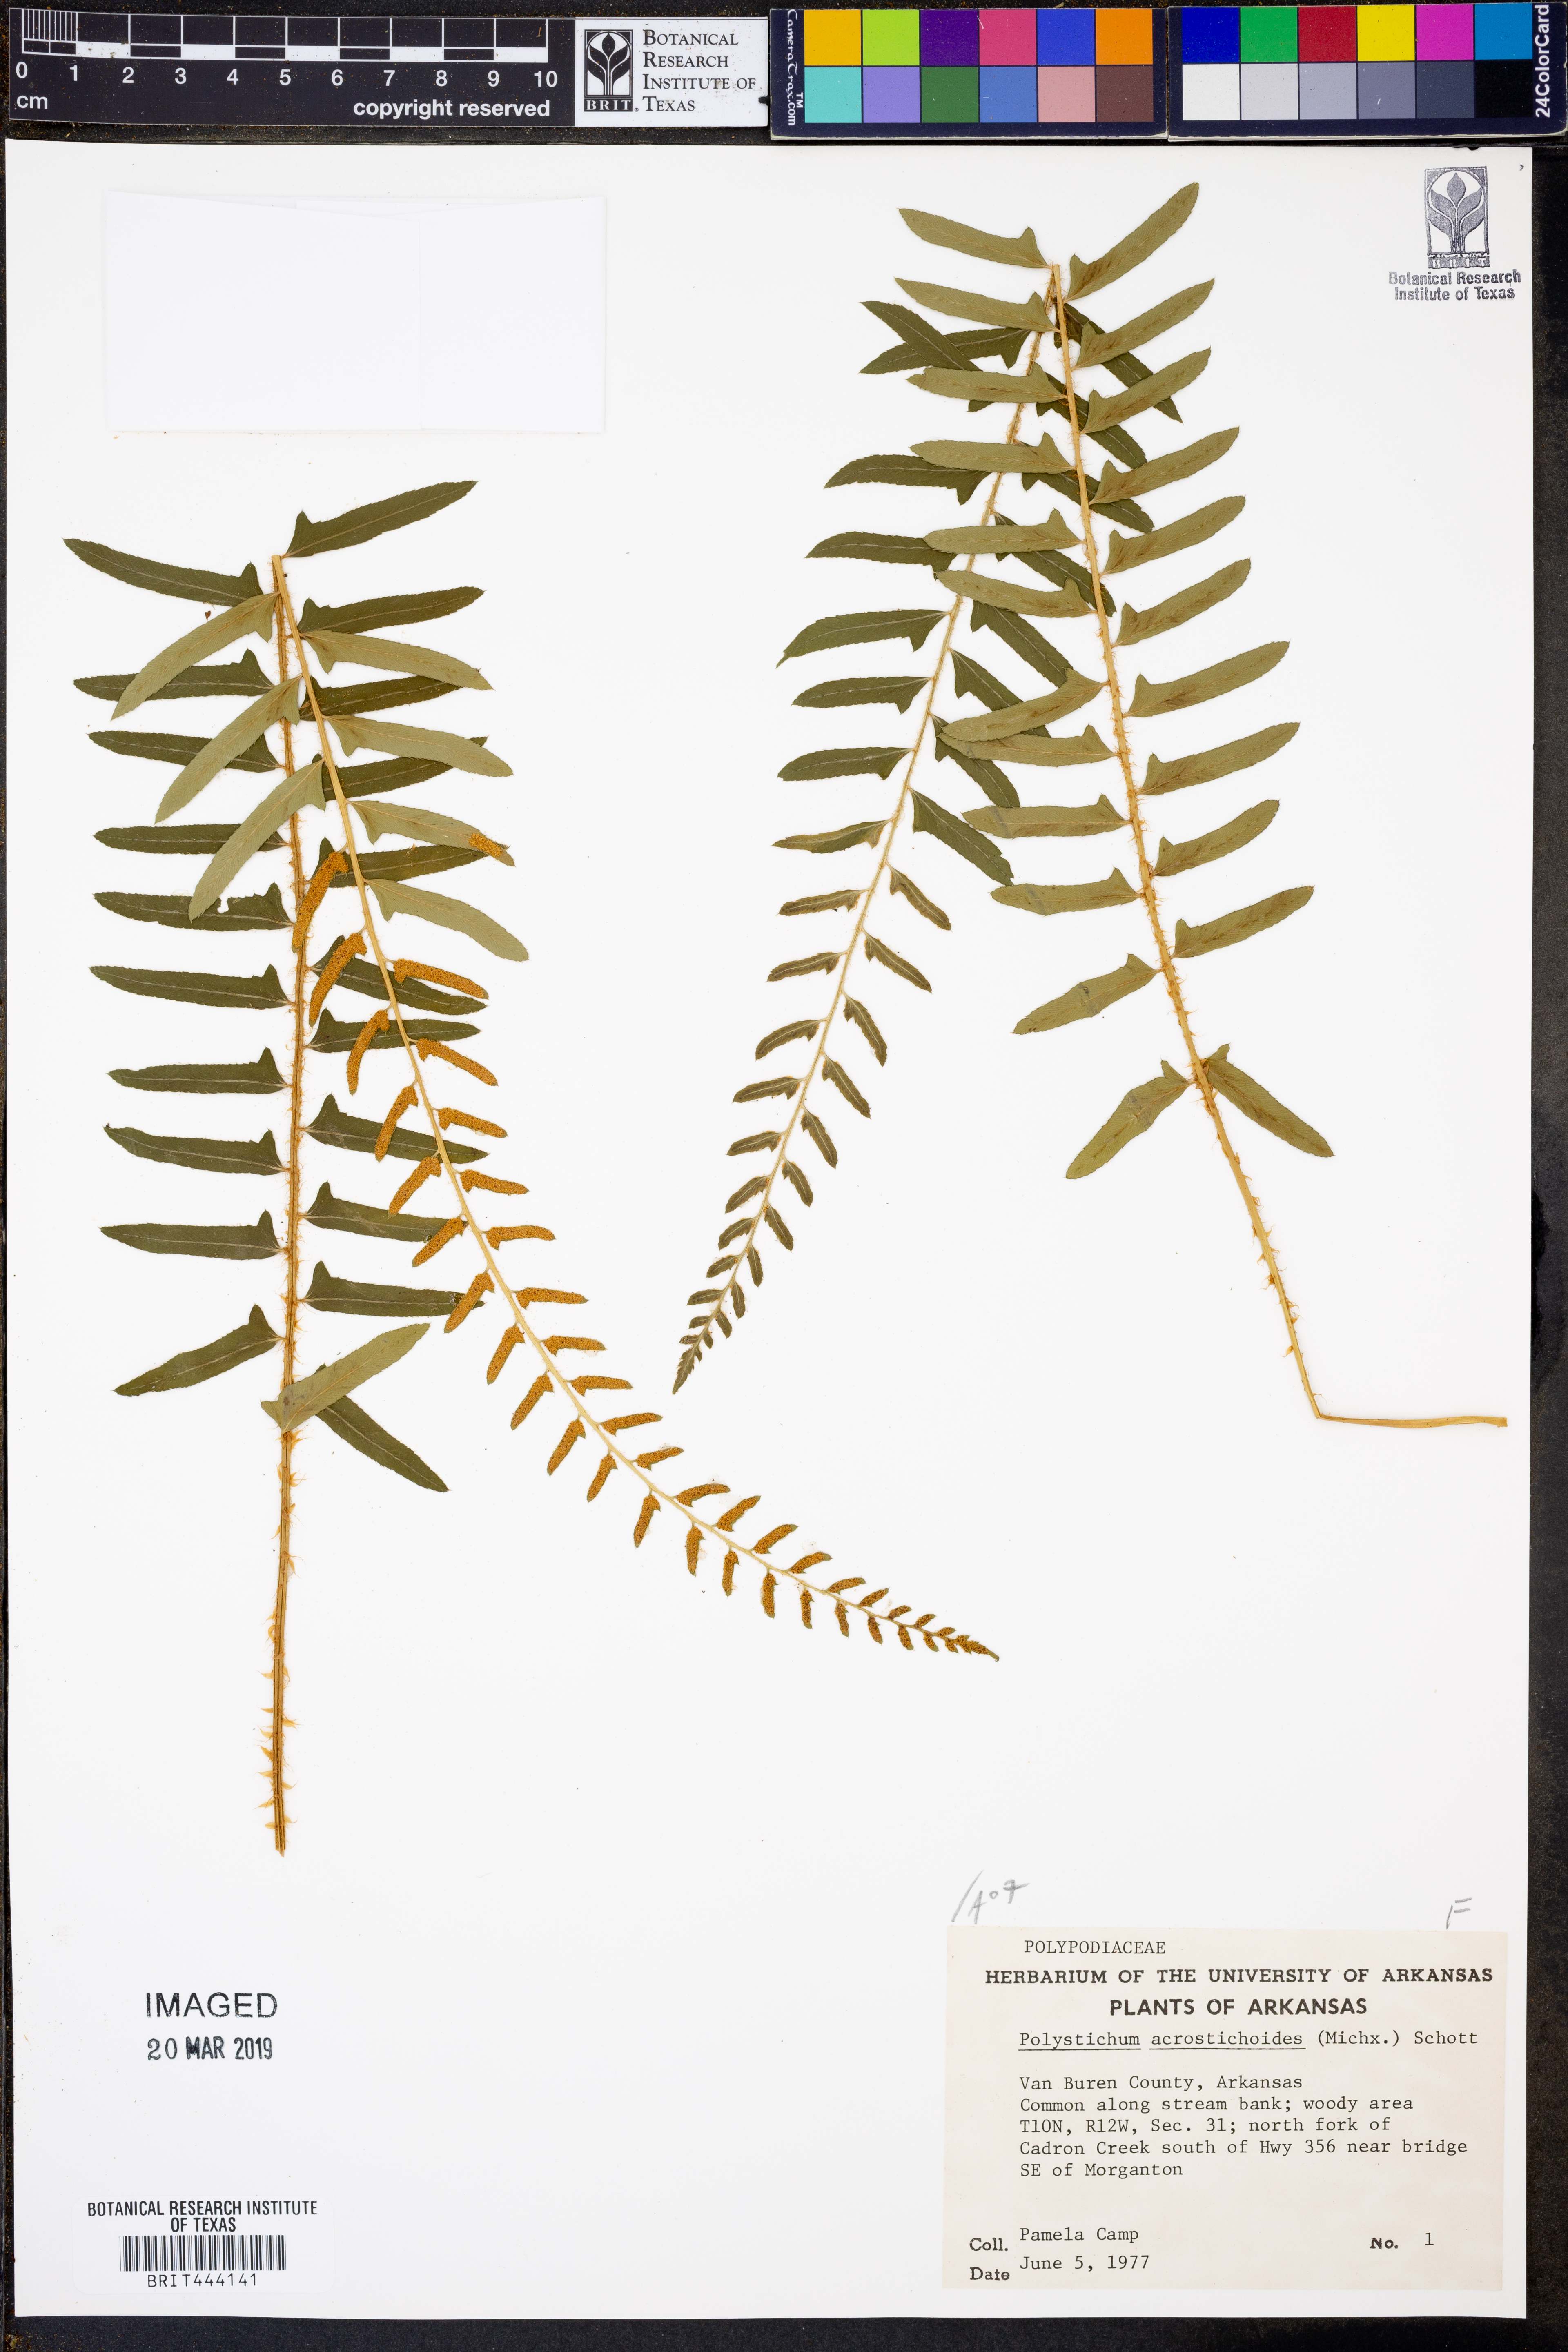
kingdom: Plantae
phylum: Tracheophyta
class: Polypodiopsida
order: Polypodiales
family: Dryopteridaceae
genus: Polystichum
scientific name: Polystichum acrostichoides
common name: Christmas fern
